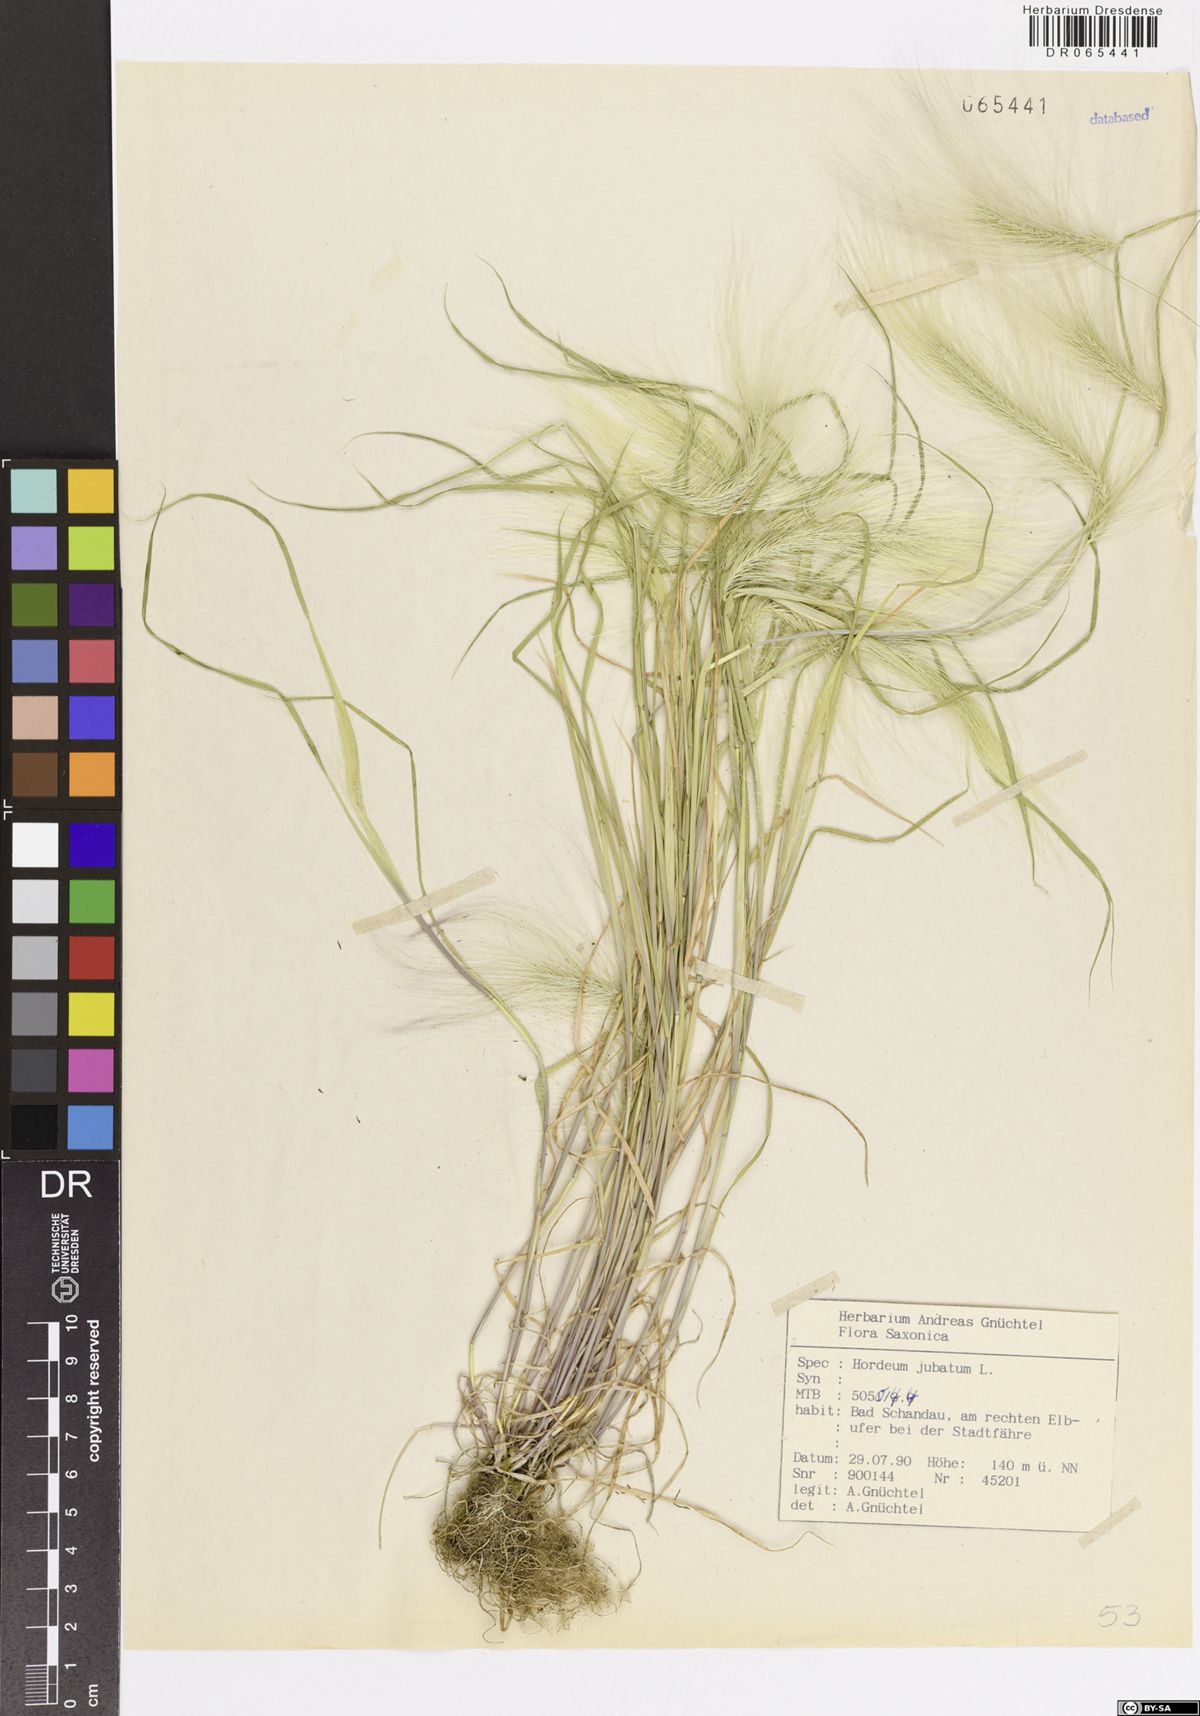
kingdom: Plantae
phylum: Tracheophyta
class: Liliopsida
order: Poales
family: Poaceae
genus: Hordeum
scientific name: Hordeum jubatum
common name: Foxtail barley
